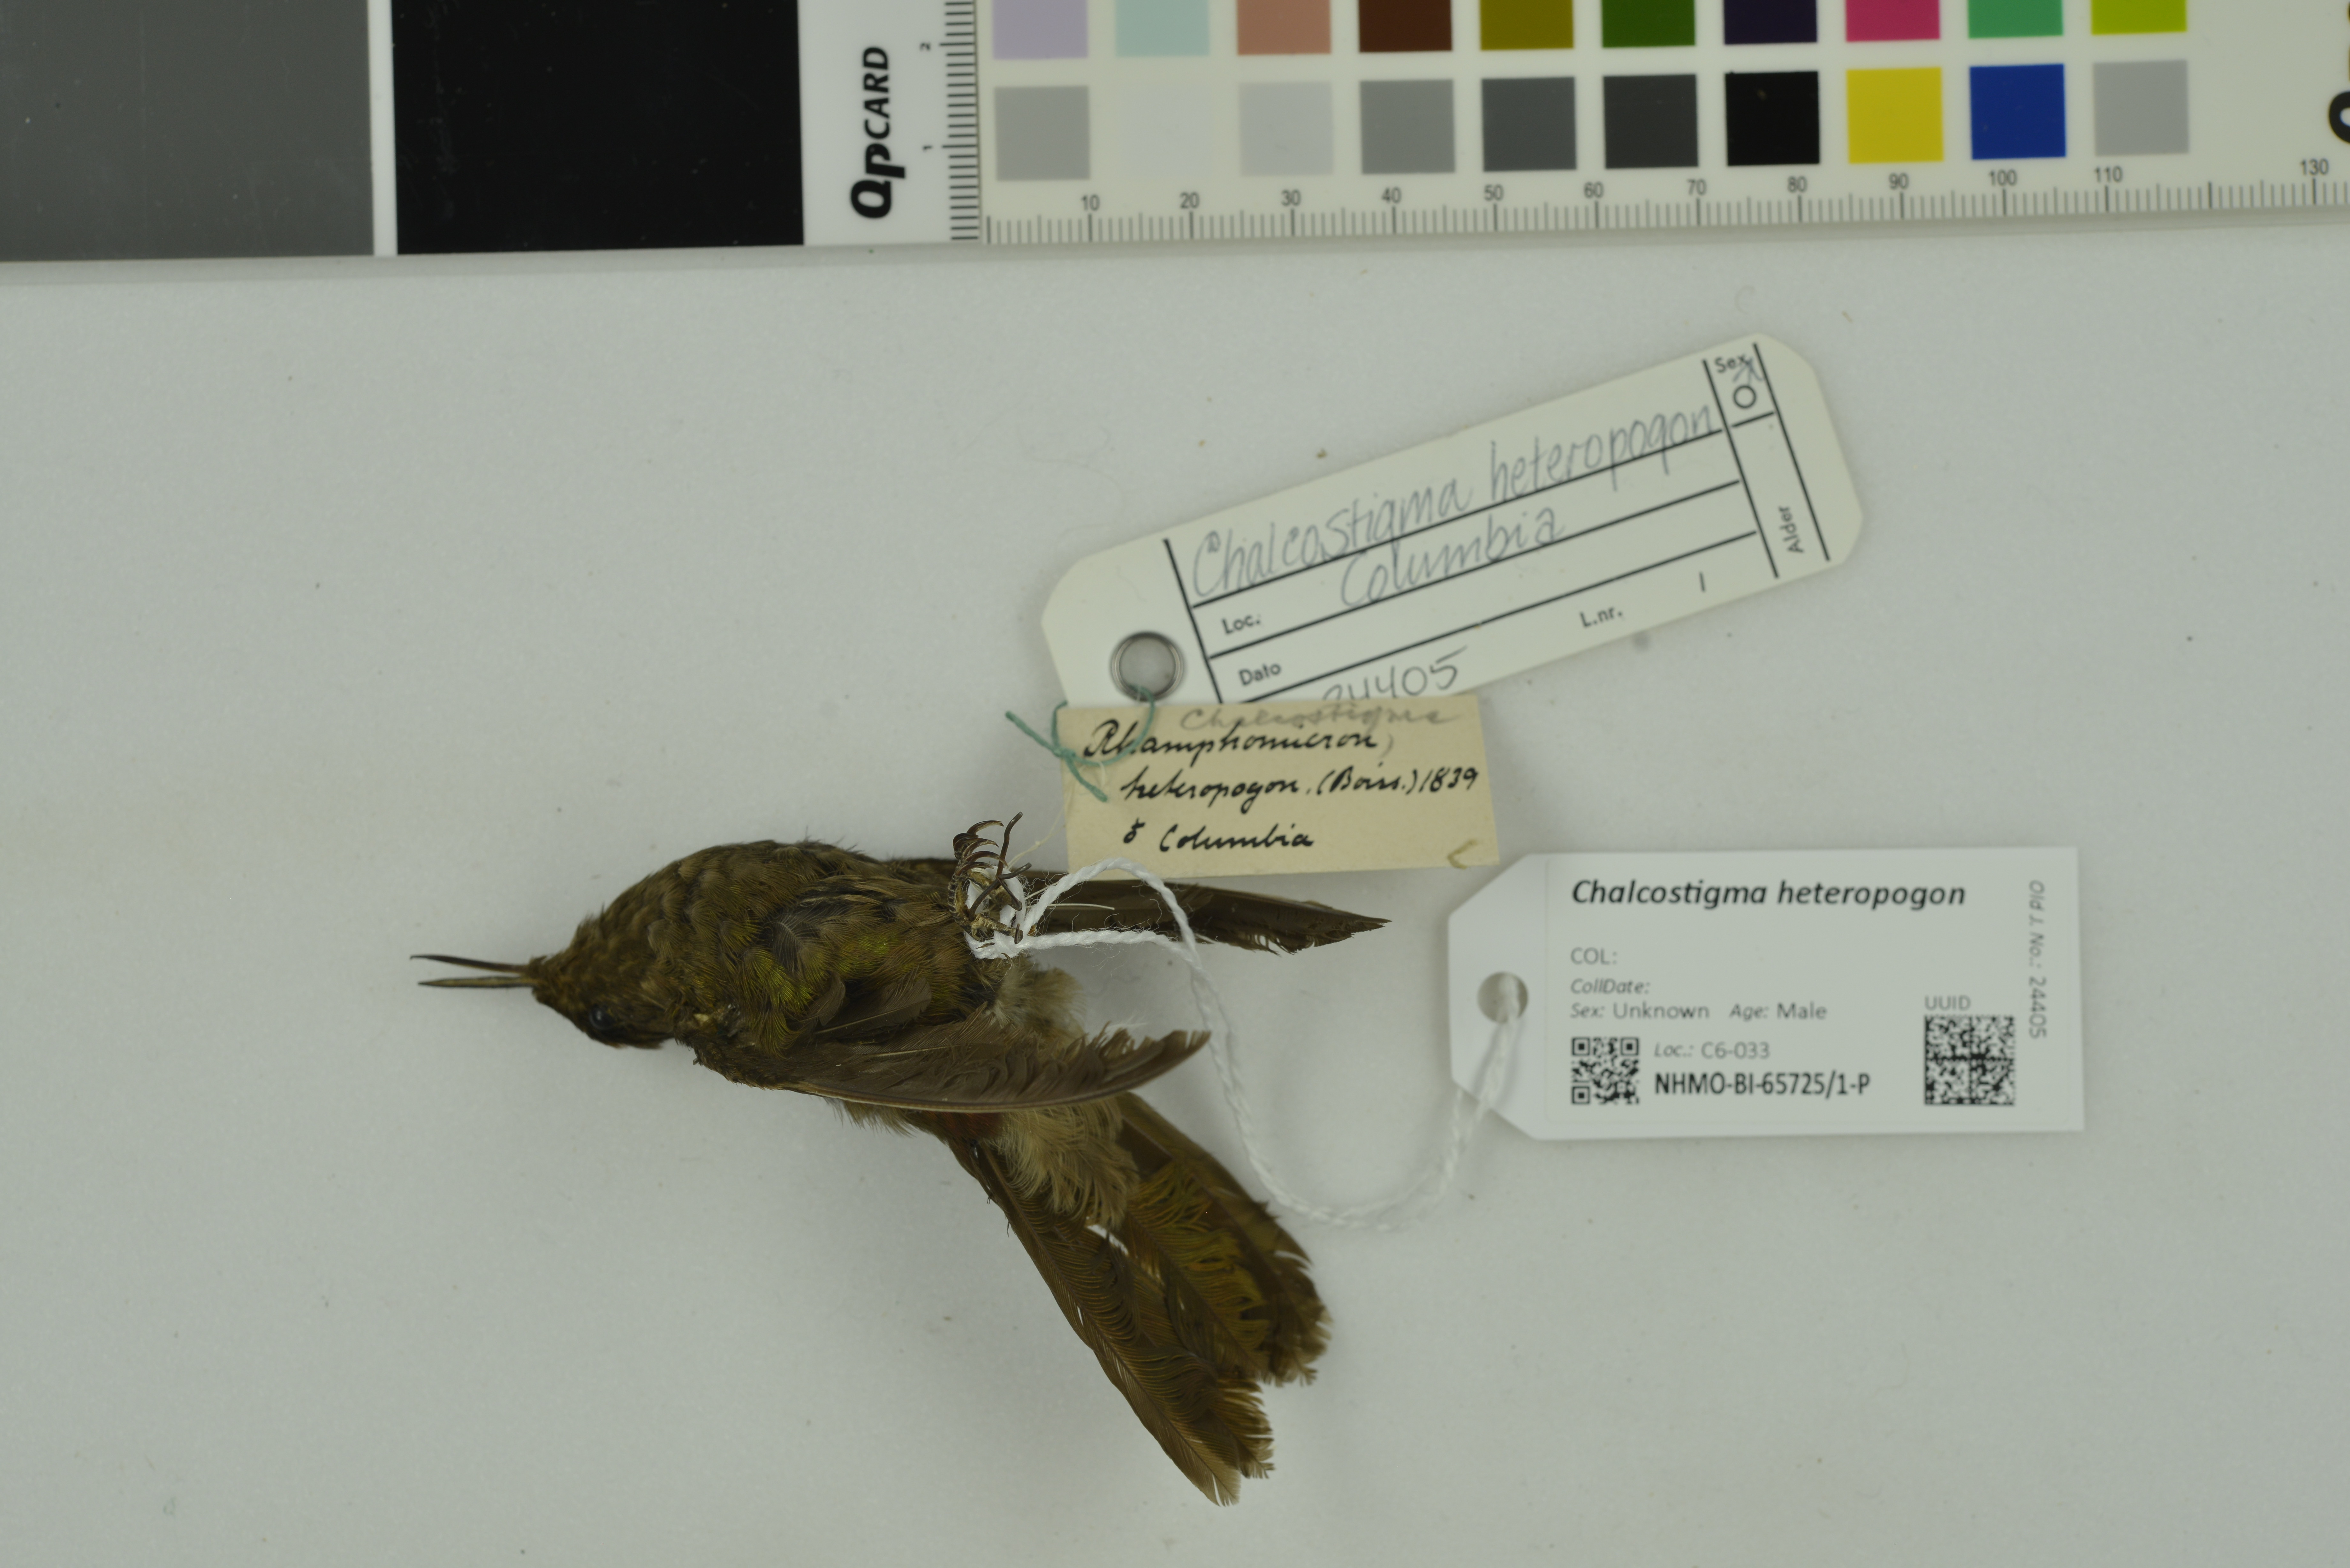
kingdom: Animalia
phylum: Chordata
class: Aves
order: Apodiformes
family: Trochilidae
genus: Chalcostigma
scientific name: Chalcostigma heteropogon
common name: Bronze-tailed thornbill
